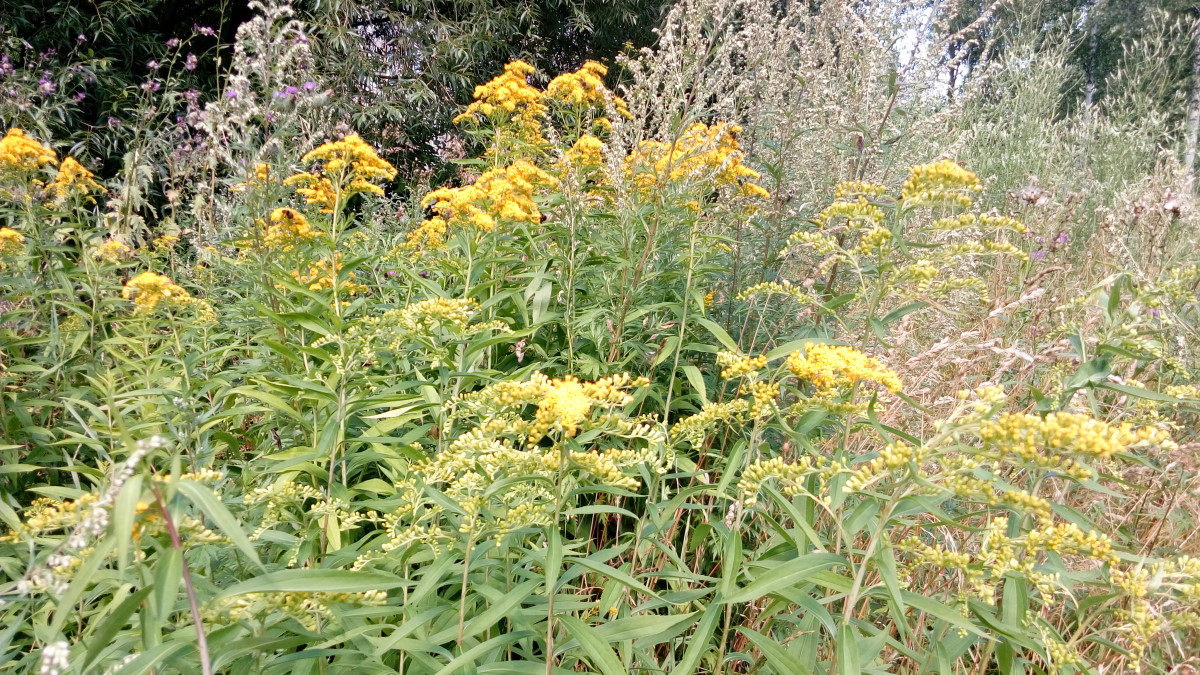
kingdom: Plantae
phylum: Tracheophyta
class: Magnoliopsida
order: Asterales
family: Asteraceae
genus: Solidago
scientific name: Solidago gigantea
